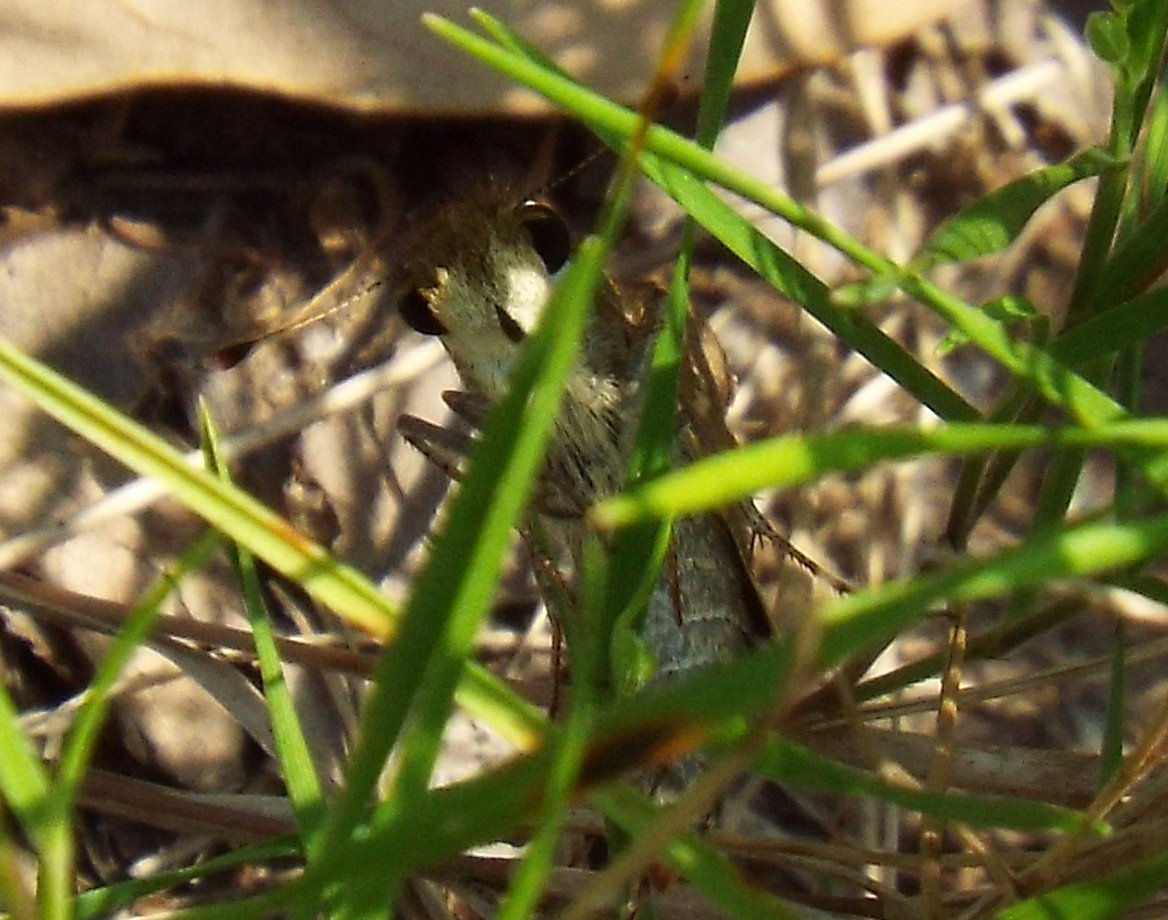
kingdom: Animalia
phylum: Arthropoda
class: Insecta
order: Lepidoptera
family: Hesperiidae
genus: Atalopedes
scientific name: Atalopedes campestris
